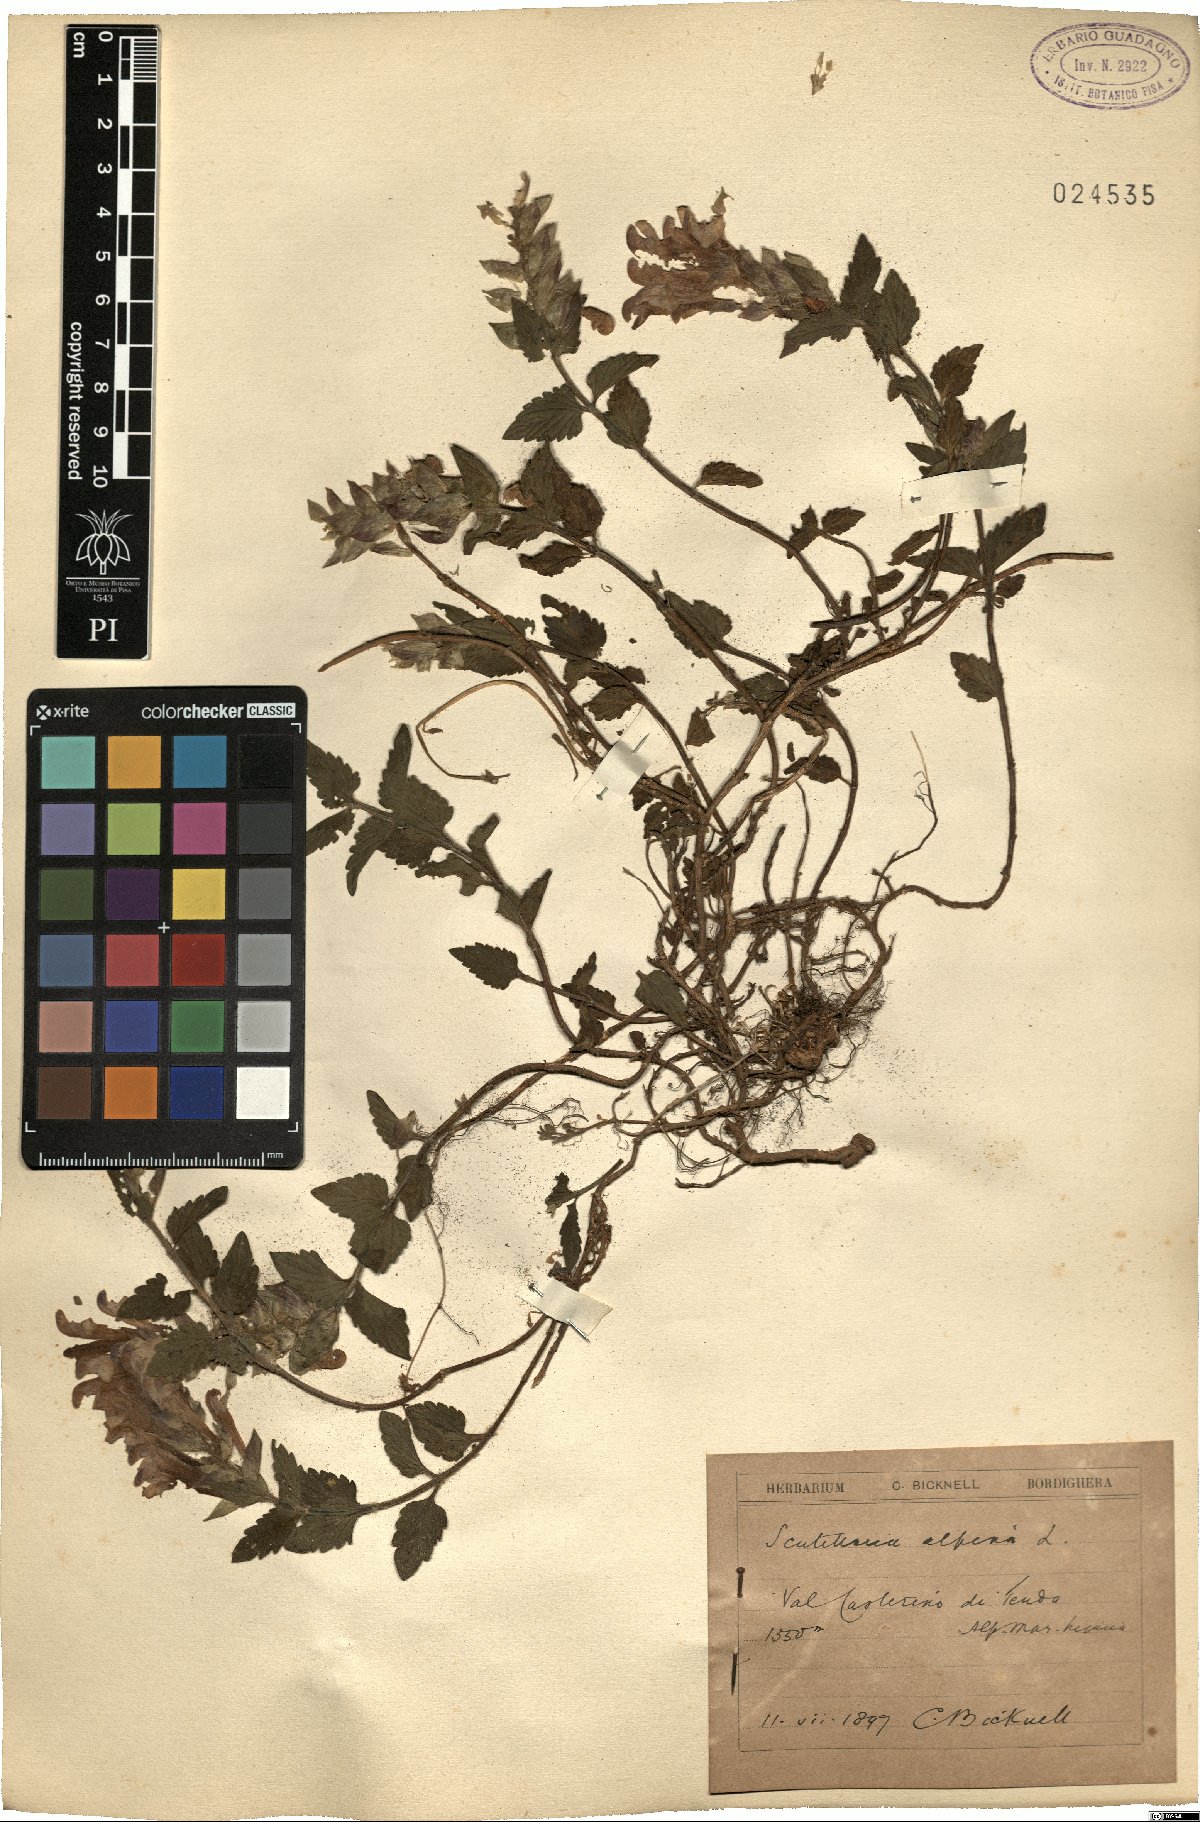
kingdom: Plantae
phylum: Tracheophyta
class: Magnoliopsida
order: Lamiales
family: Lamiaceae
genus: Scutellaria
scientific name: Scutellaria alpina
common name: Alpine scullcap
